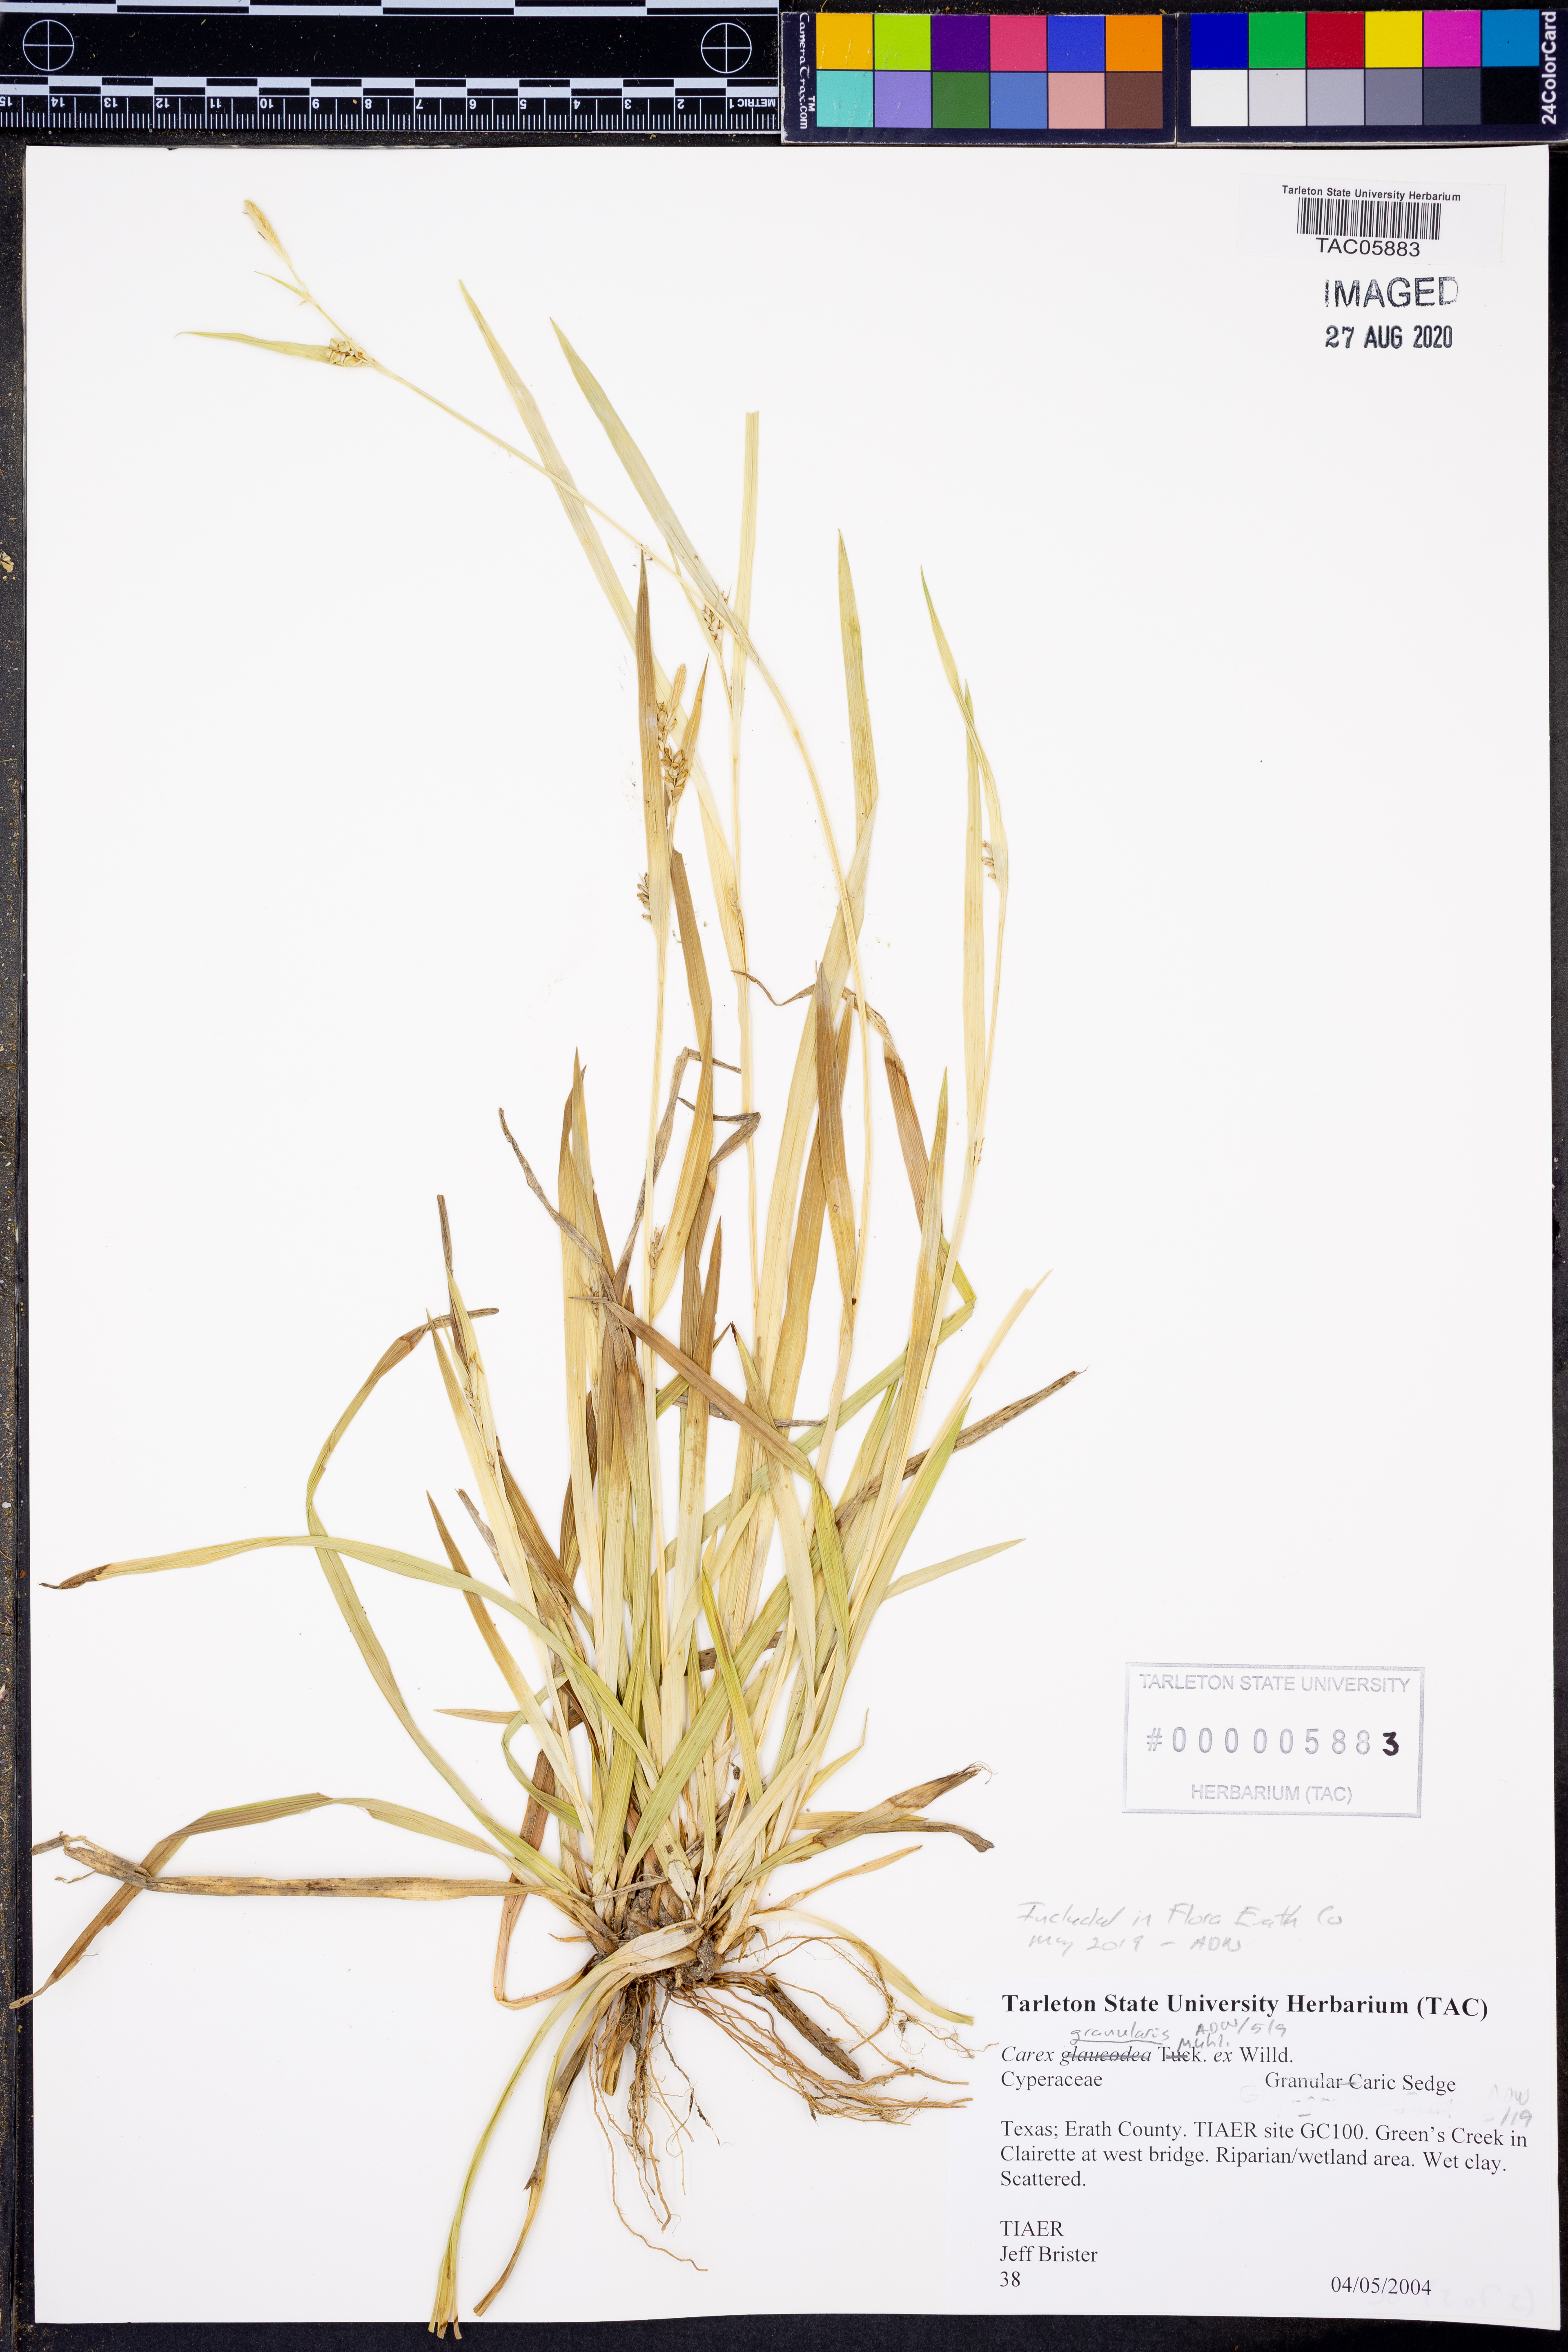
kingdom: Plantae
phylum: Tracheophyta
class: Liliopsida
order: Poales
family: Cyperaceae
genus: Carex
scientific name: Carex granularis
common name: Granular sedge
